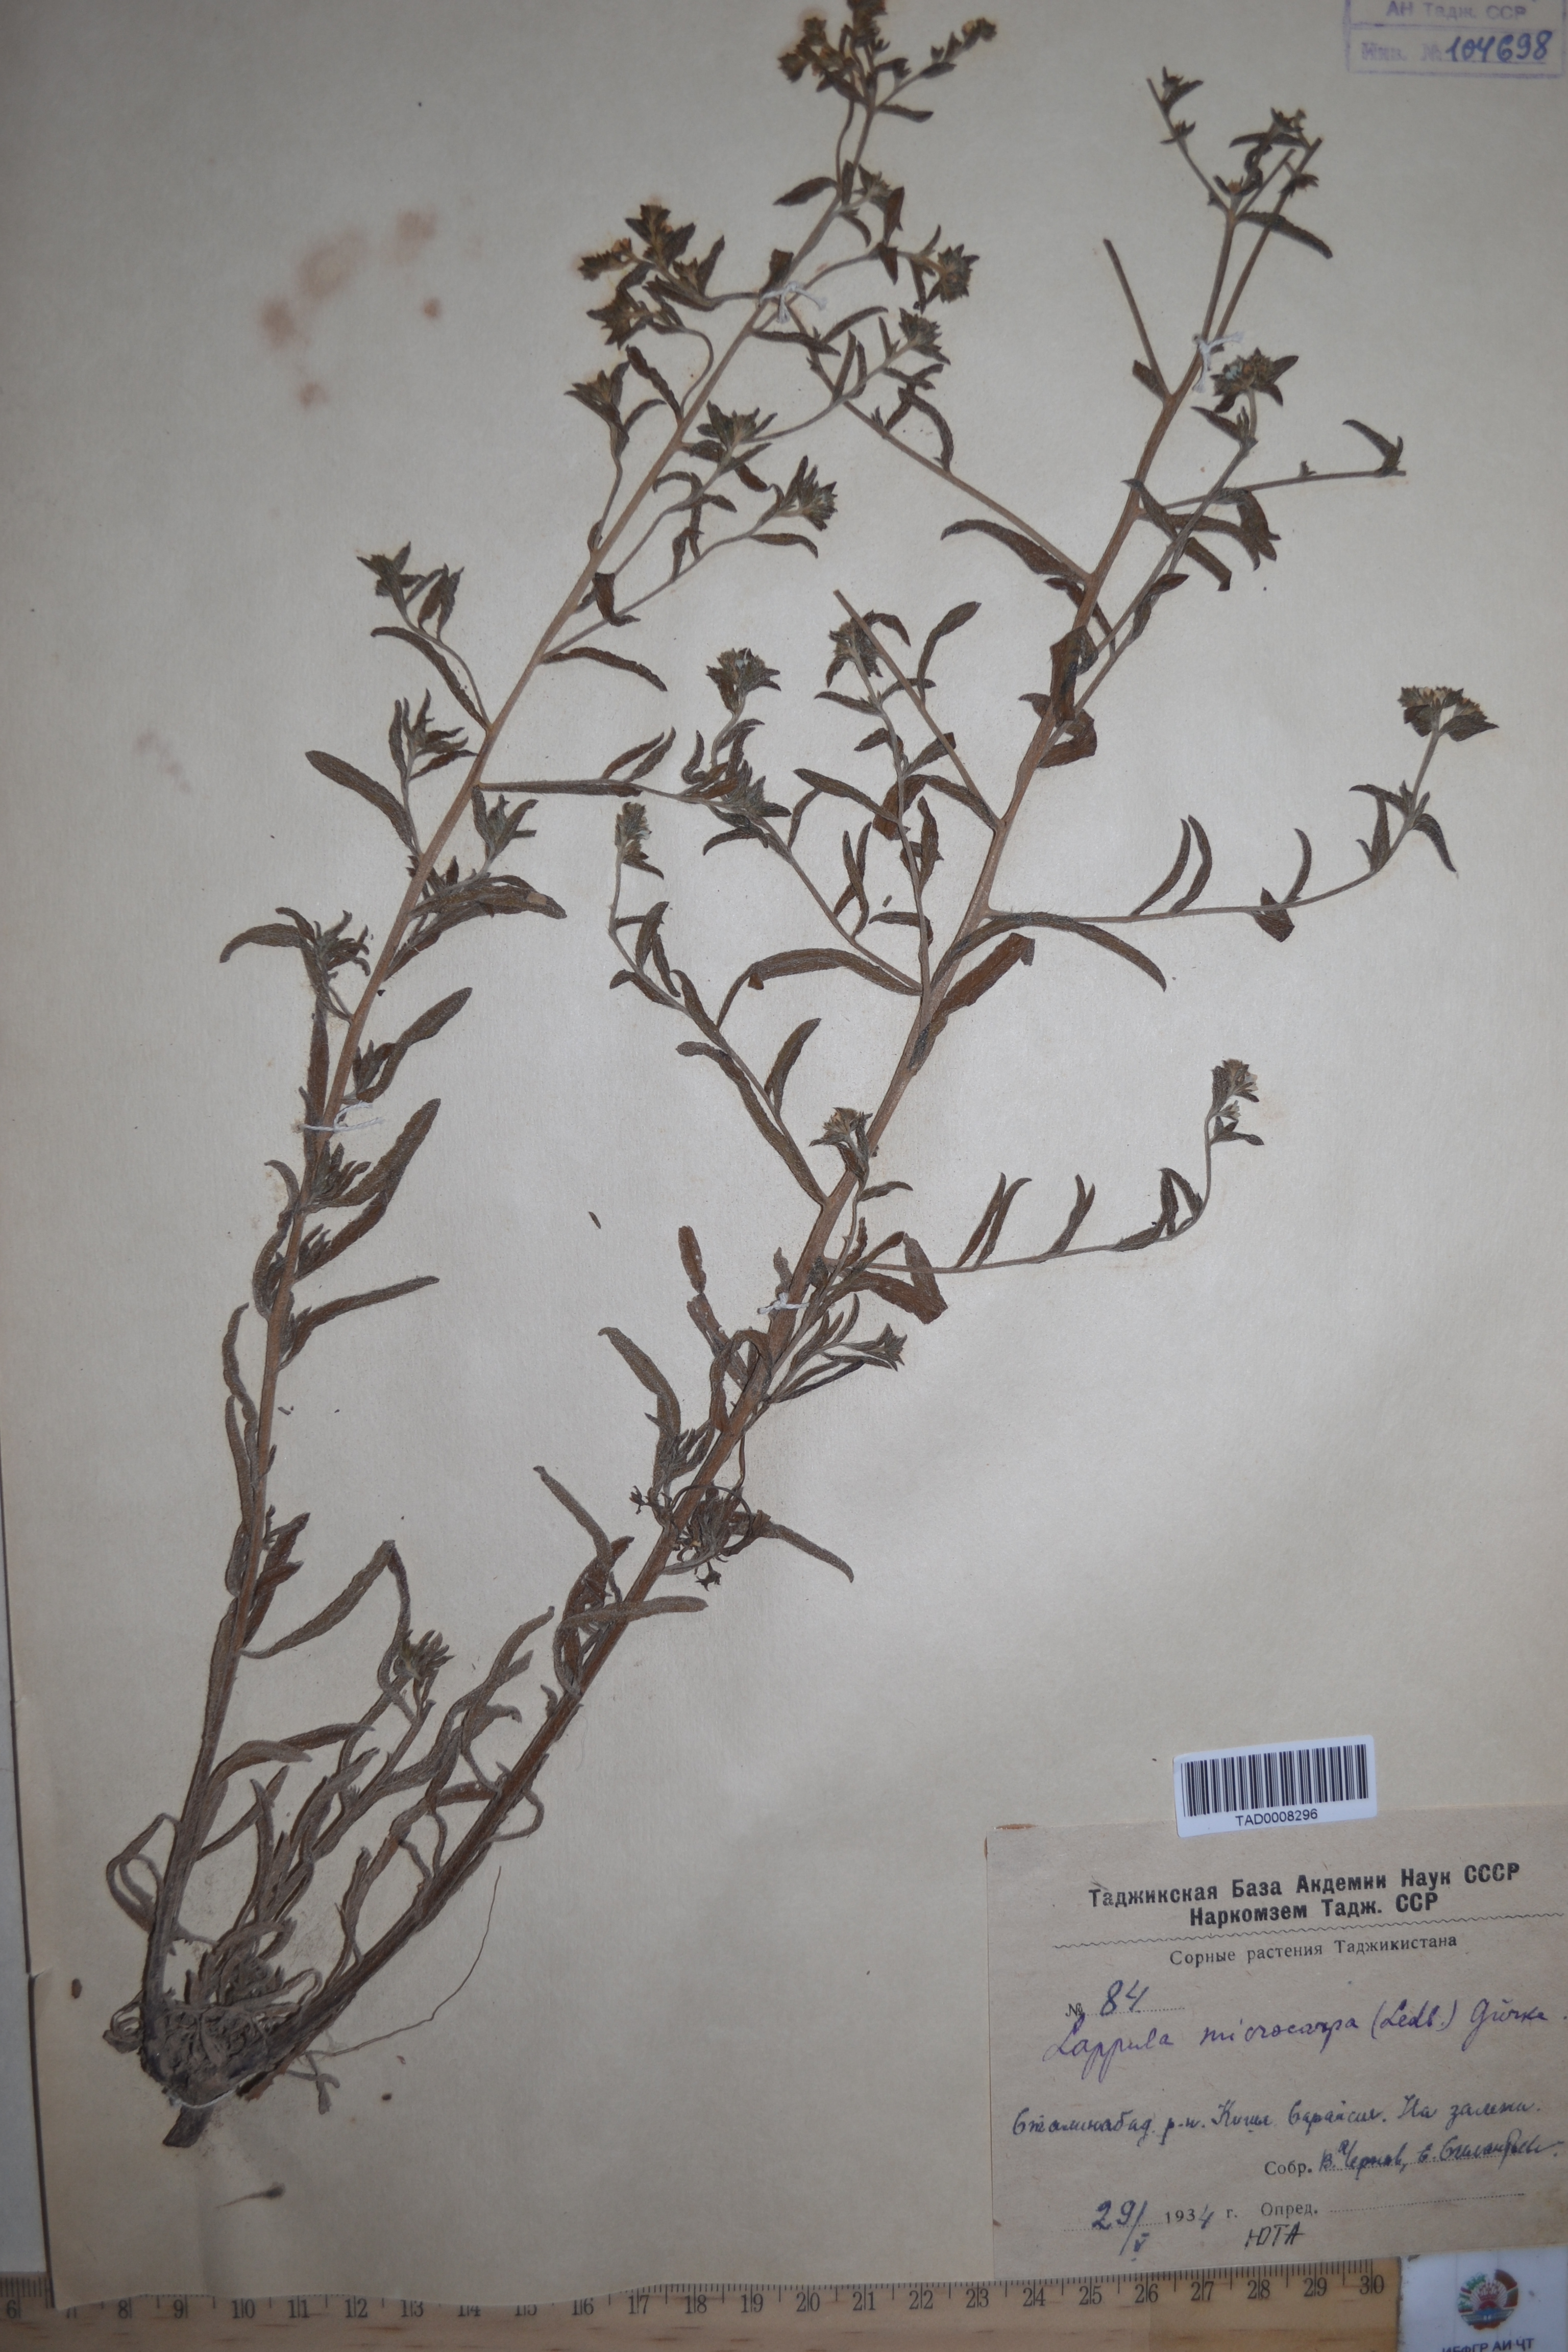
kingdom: Plantae
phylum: Tracheophyta
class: Magnoliopsida
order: Boraginales
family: Boraginaceae
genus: Lappula
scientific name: Lappula microcarpa
